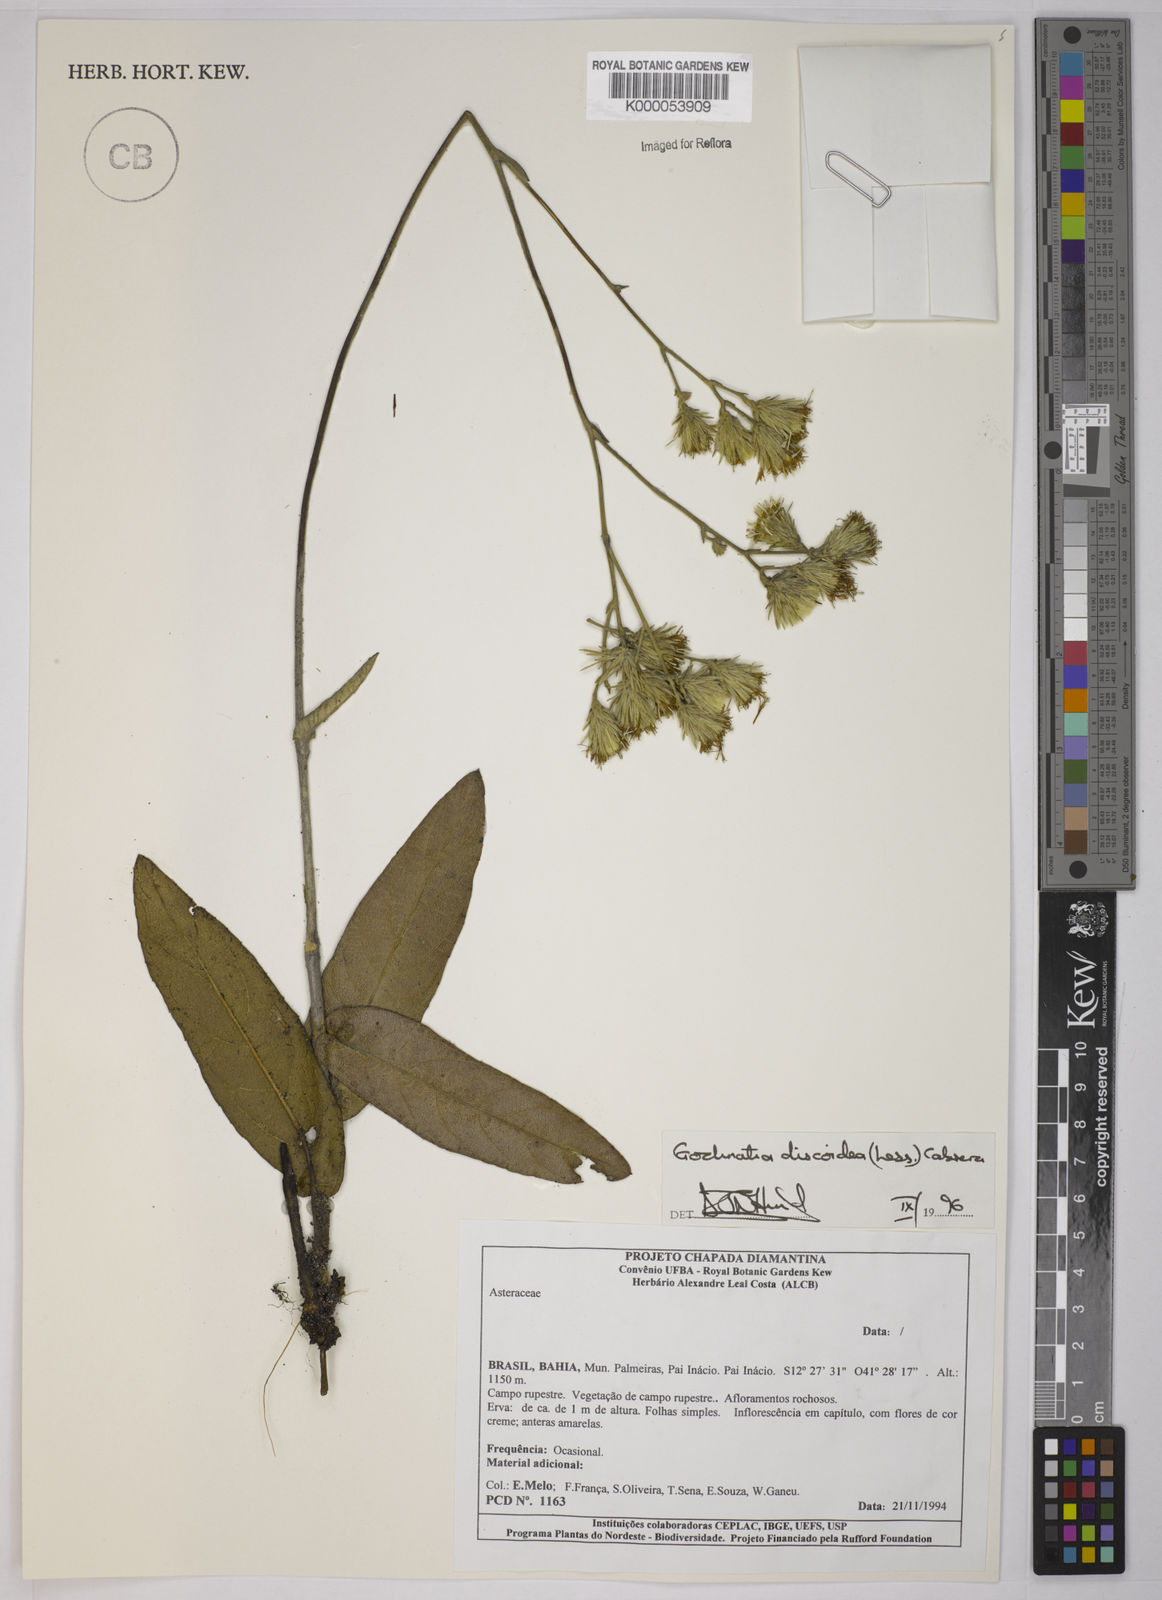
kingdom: Plantae
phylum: Tracheophyta
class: Magnoliopsida
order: Asterales
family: Asteraceae
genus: Richterago
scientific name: Richterago discoidea
